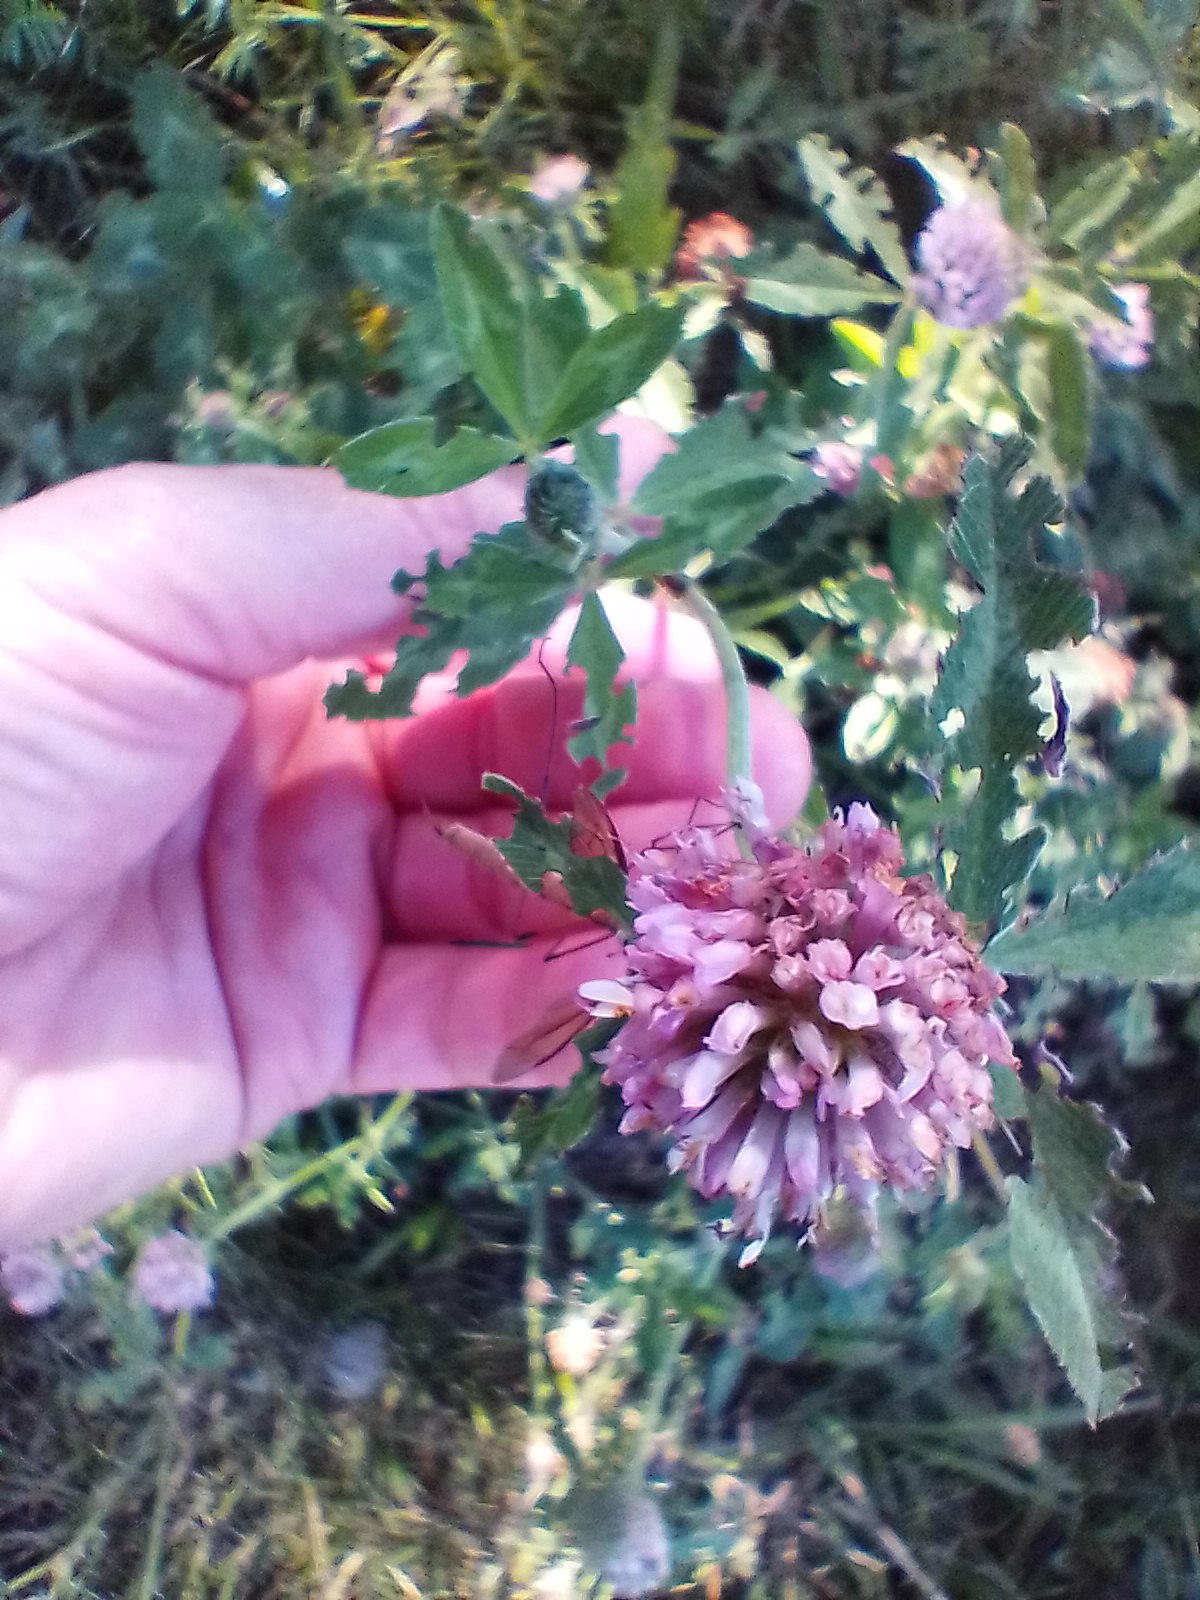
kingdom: Plantae
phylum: Tracheophyta
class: Magnoliopsida
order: Fabales
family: Fabaceae
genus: Trifolium
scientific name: Trifolium pratense
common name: Rød-kløver
